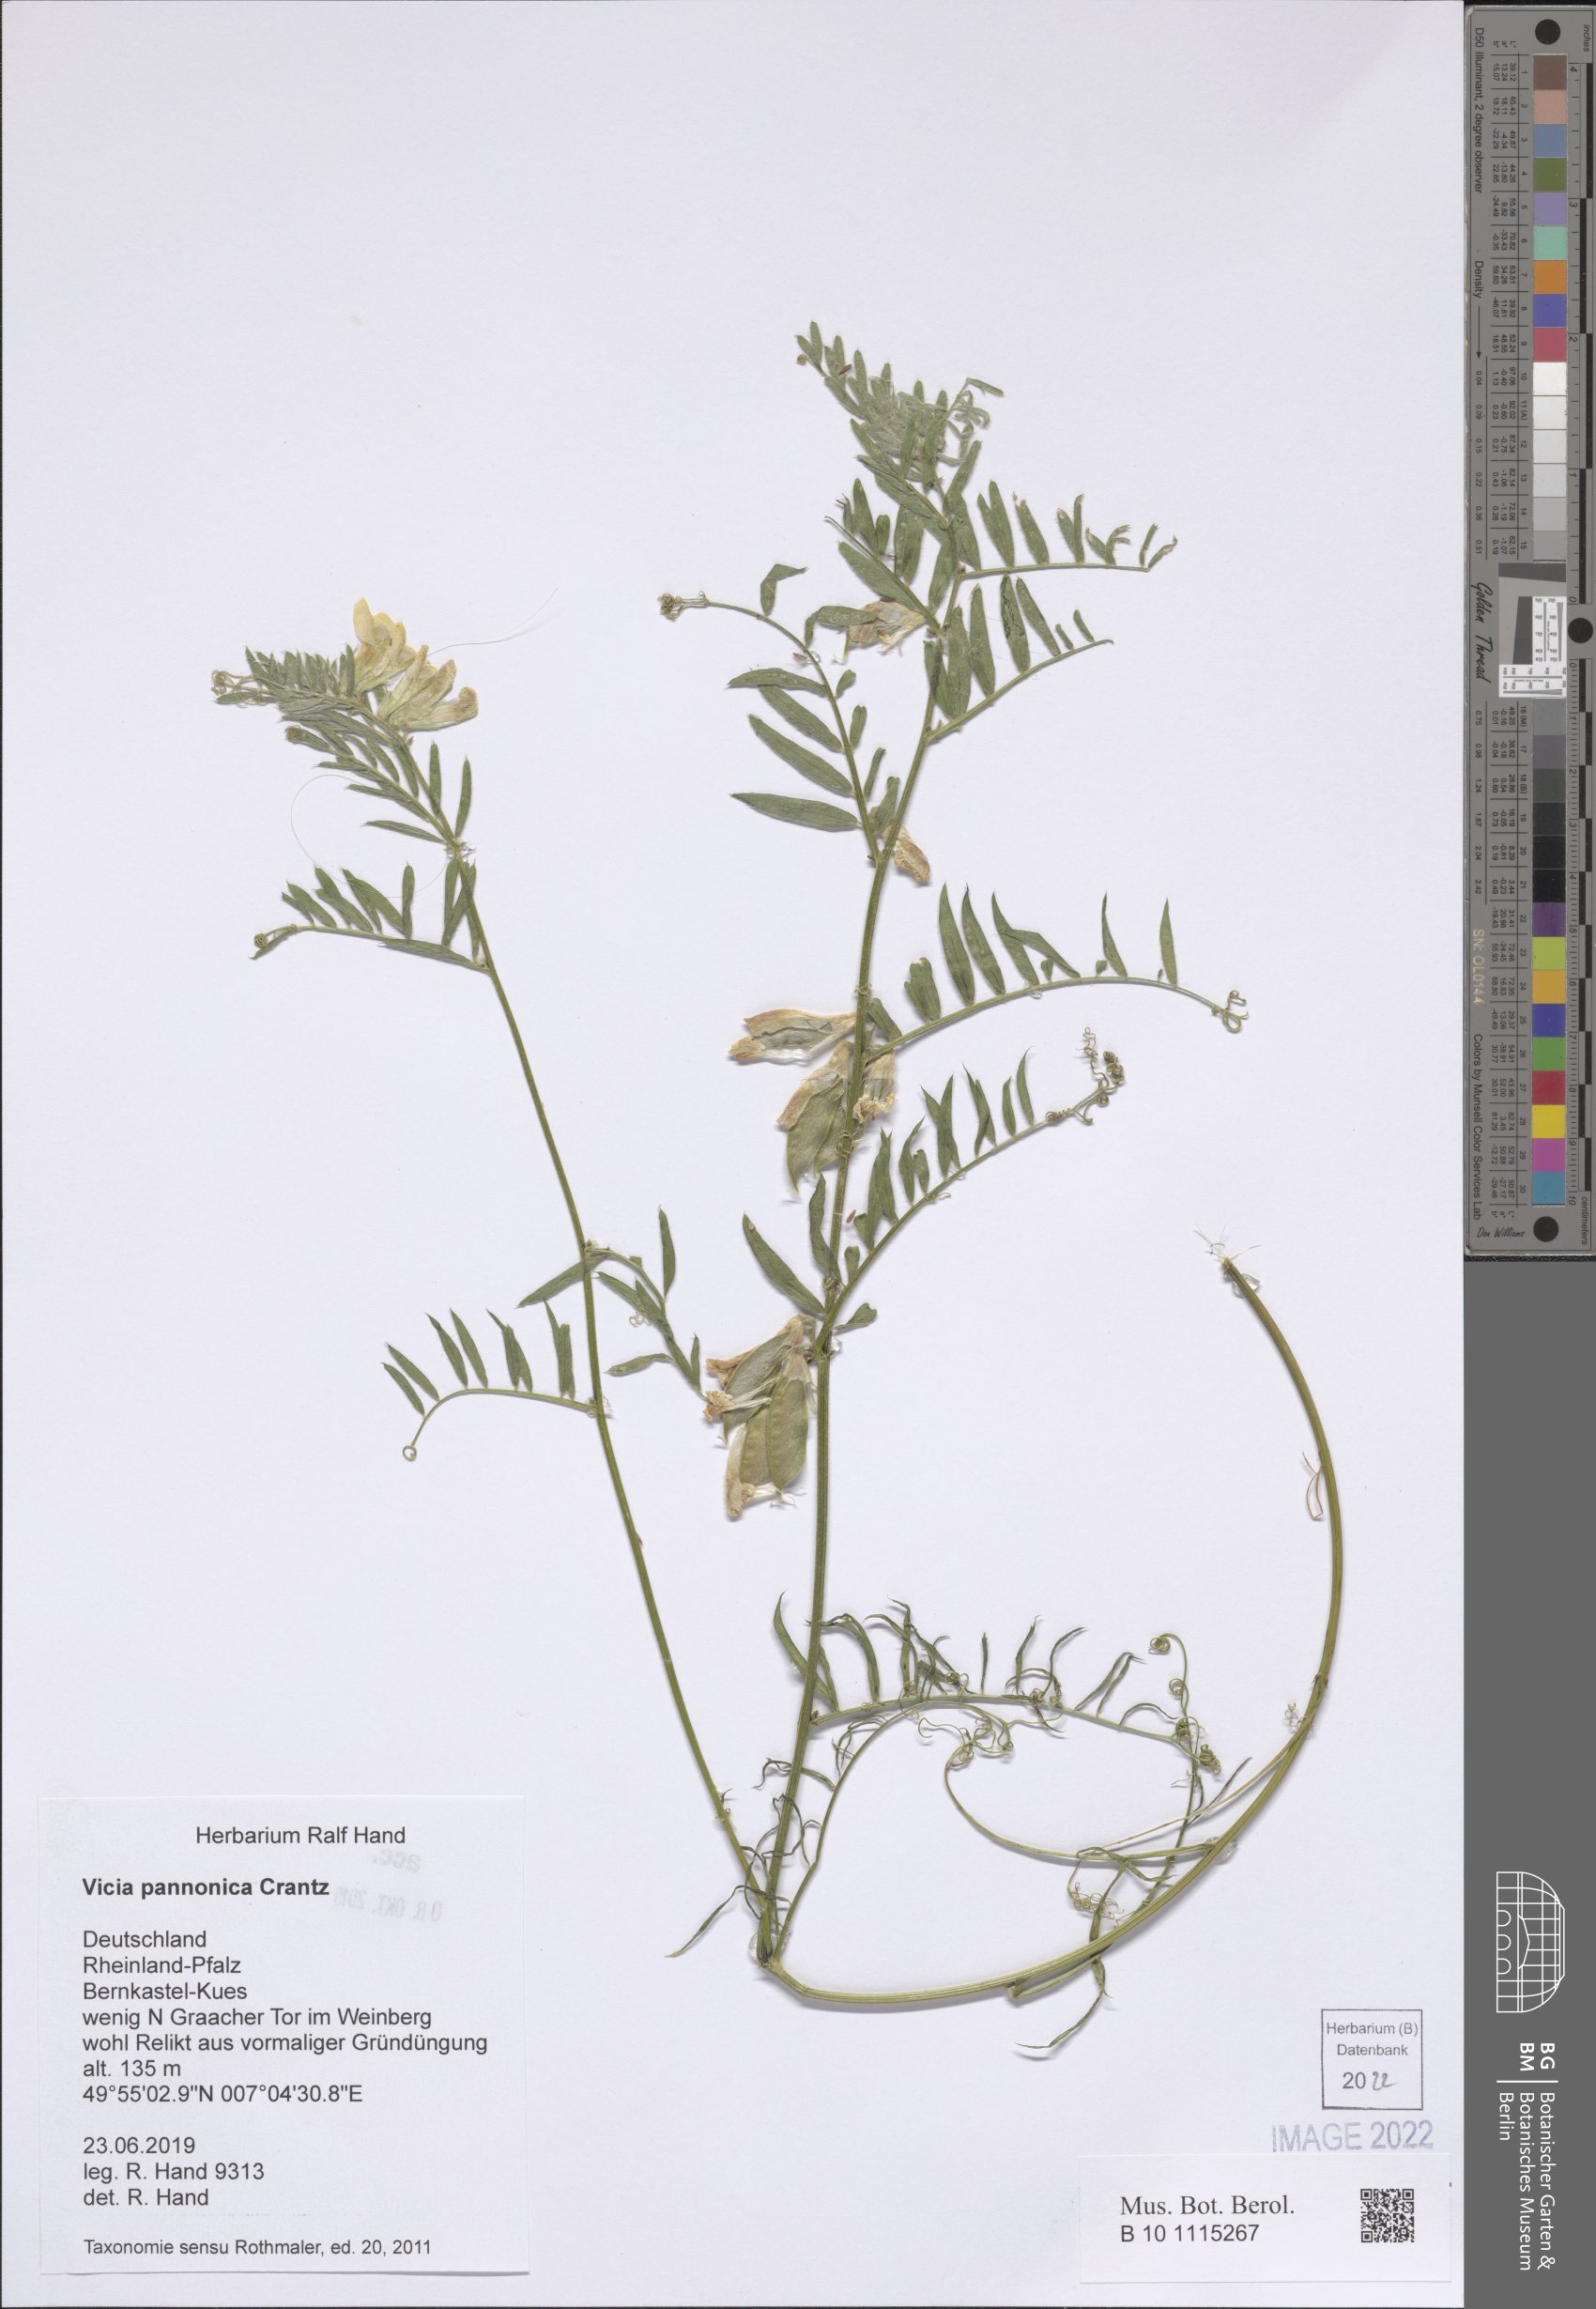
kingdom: Plantae
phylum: Tracheophyta
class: Magnoliopsida
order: Fabales
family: Fabaceae
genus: Vicia
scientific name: Vicia pannonica
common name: Hungarian vetch
